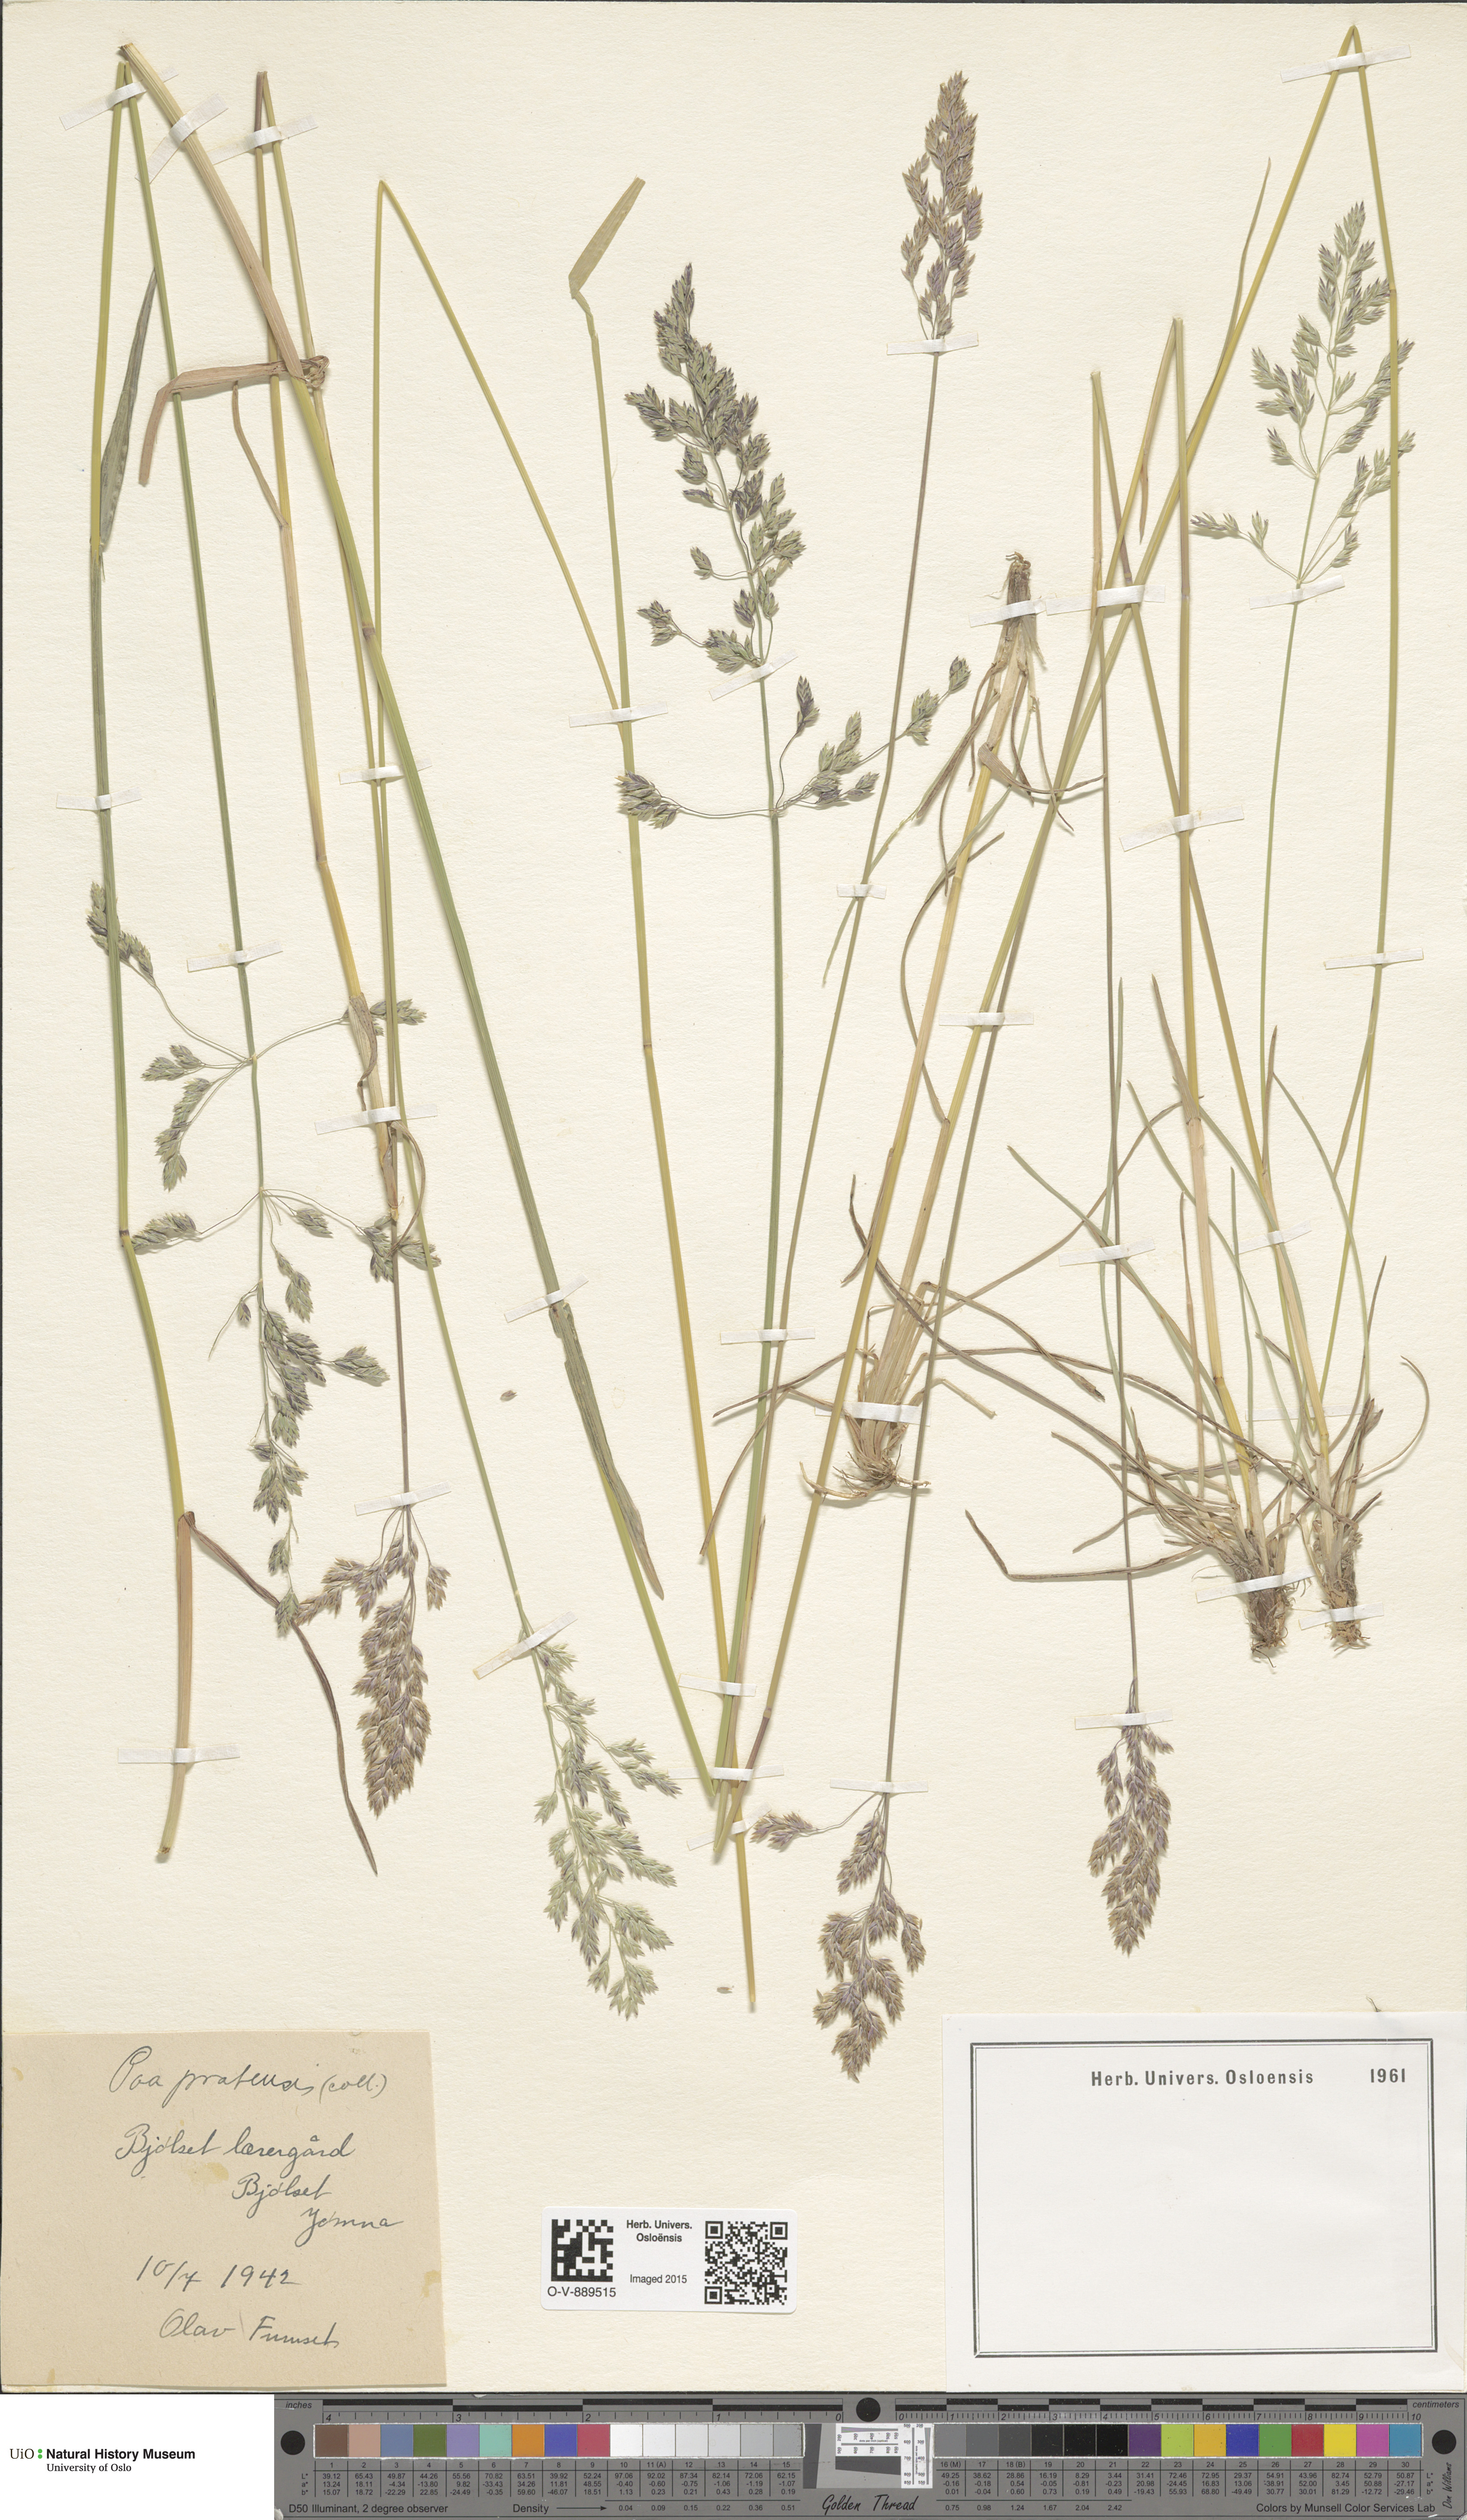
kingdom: Plantae
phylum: Tracheophyta
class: Liliopsida
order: Poales
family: Poaceae
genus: Poa
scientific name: Poa pratensis
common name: Kentucky bluegrass
